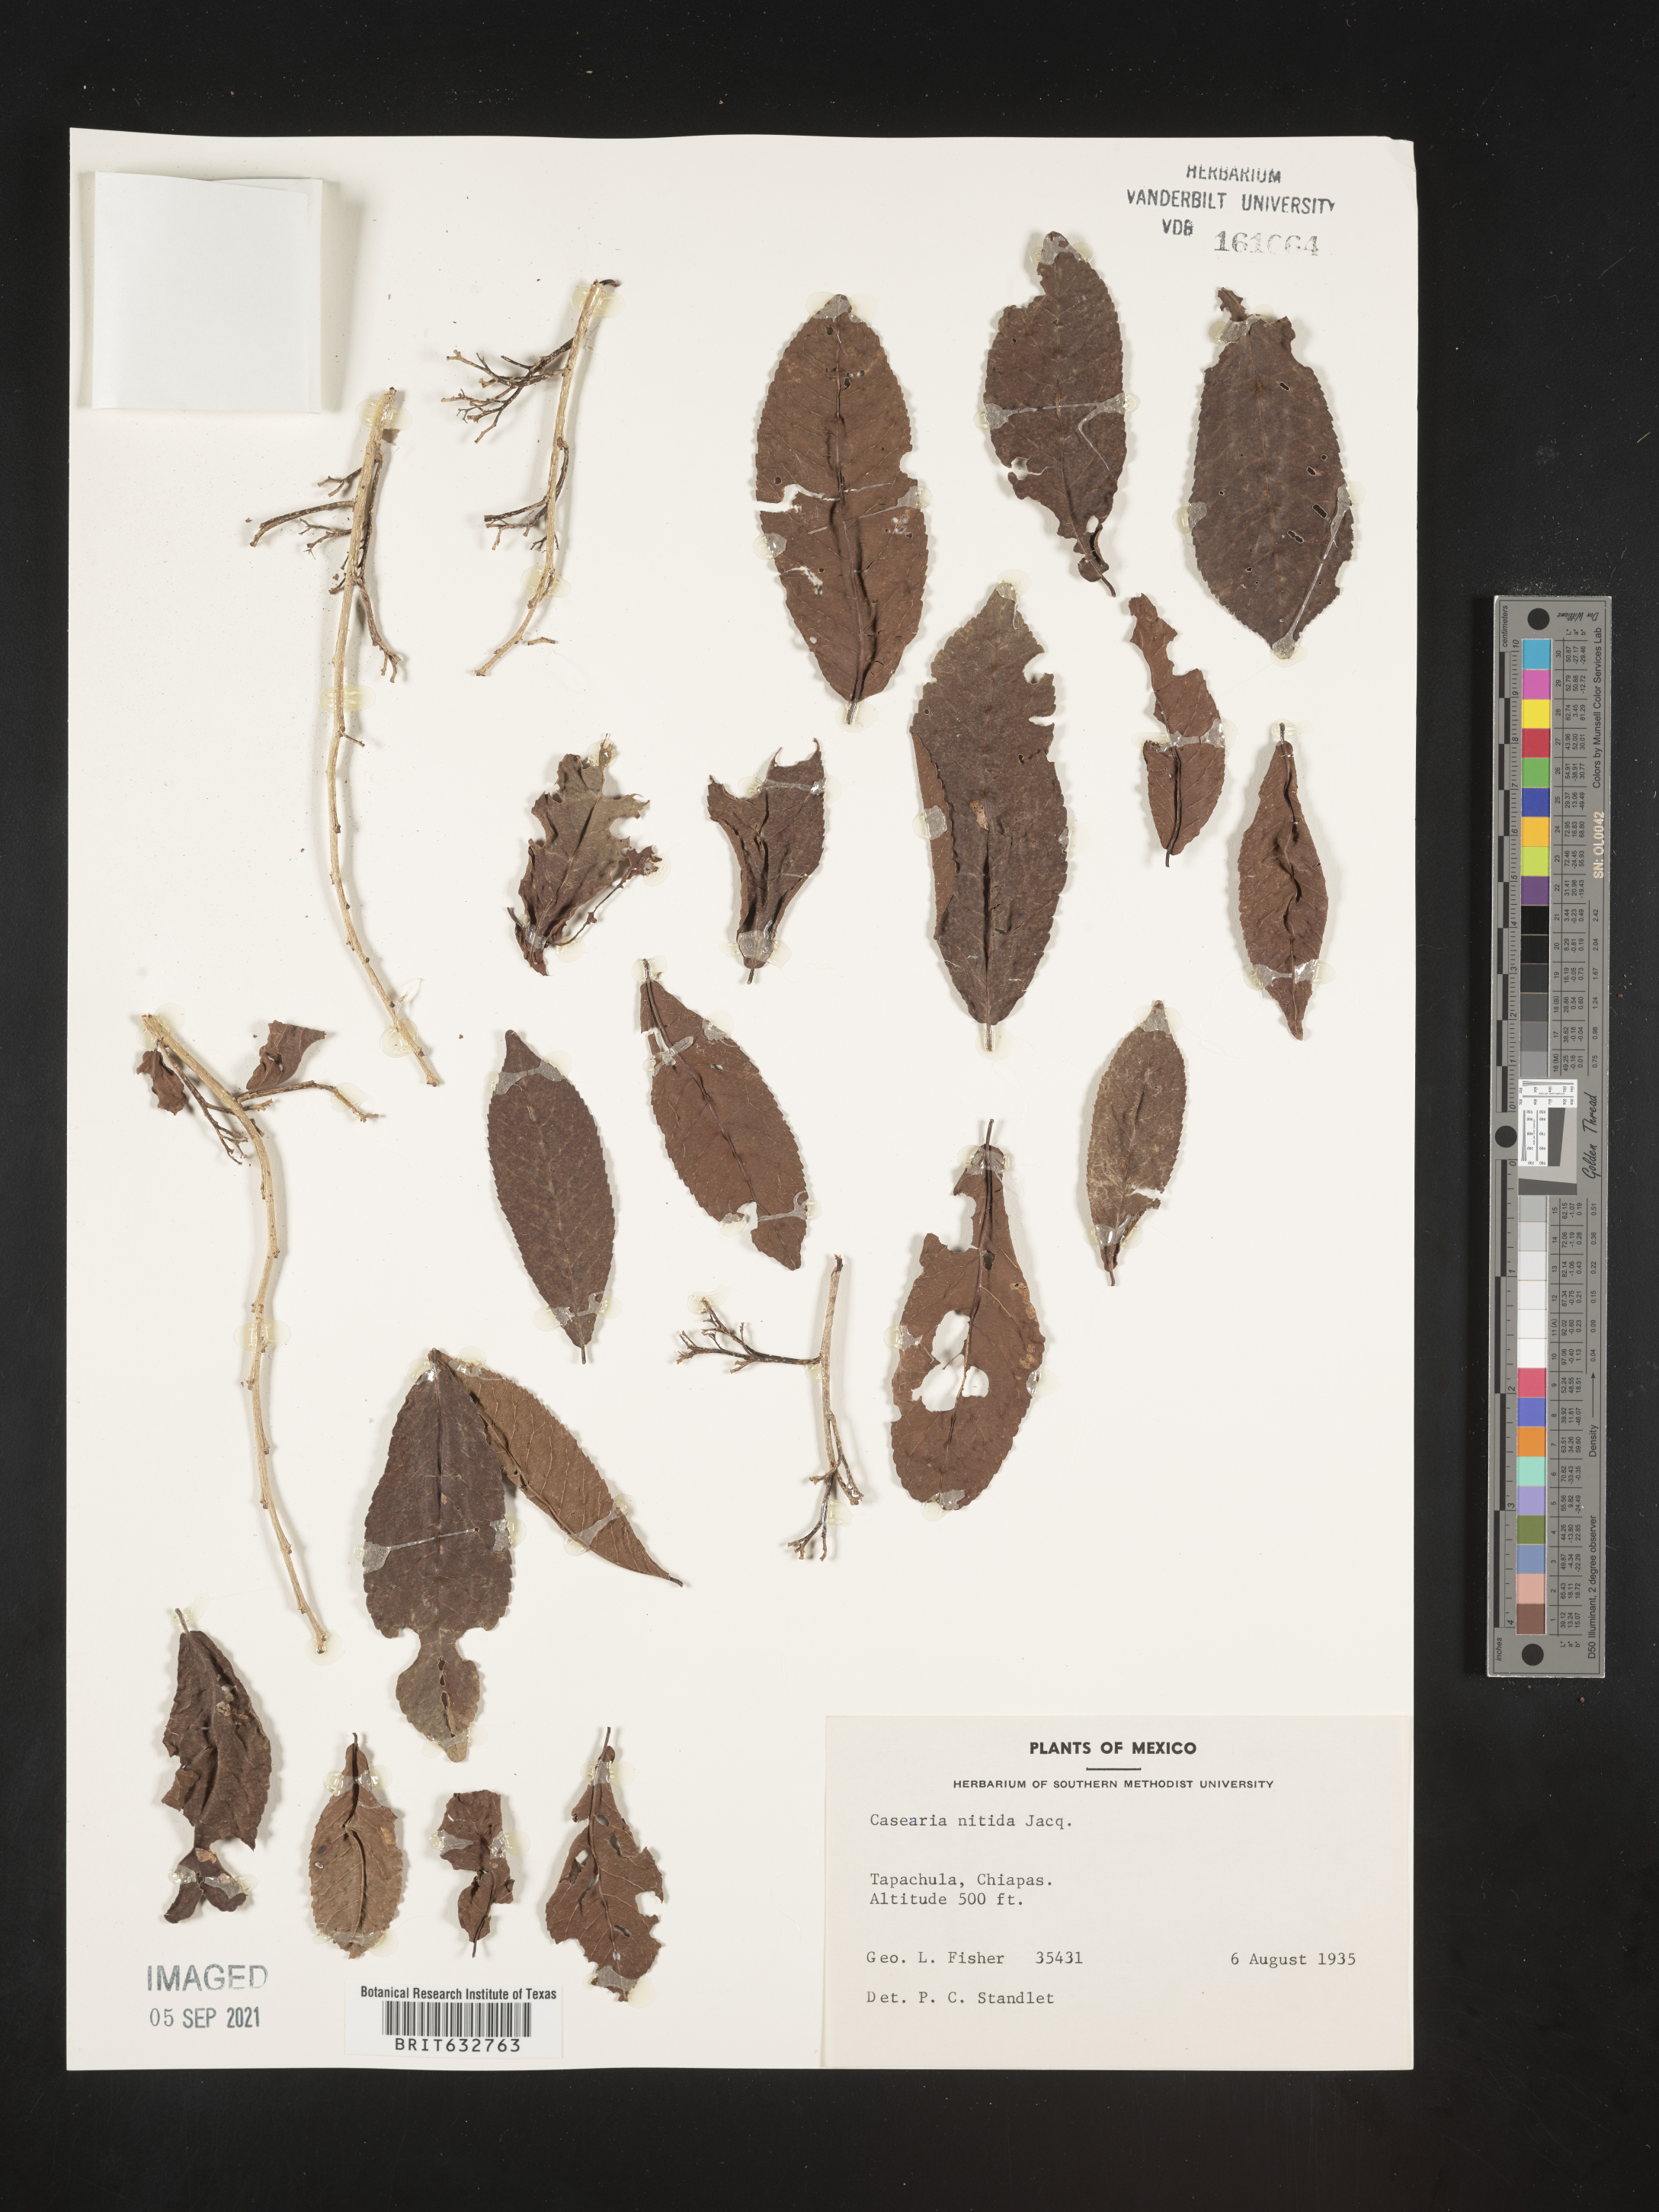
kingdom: Plantae
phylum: Tracheophyta
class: Magnoliopsida
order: Malpighiales
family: Salicaceae
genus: Casearia
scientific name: Casearia
